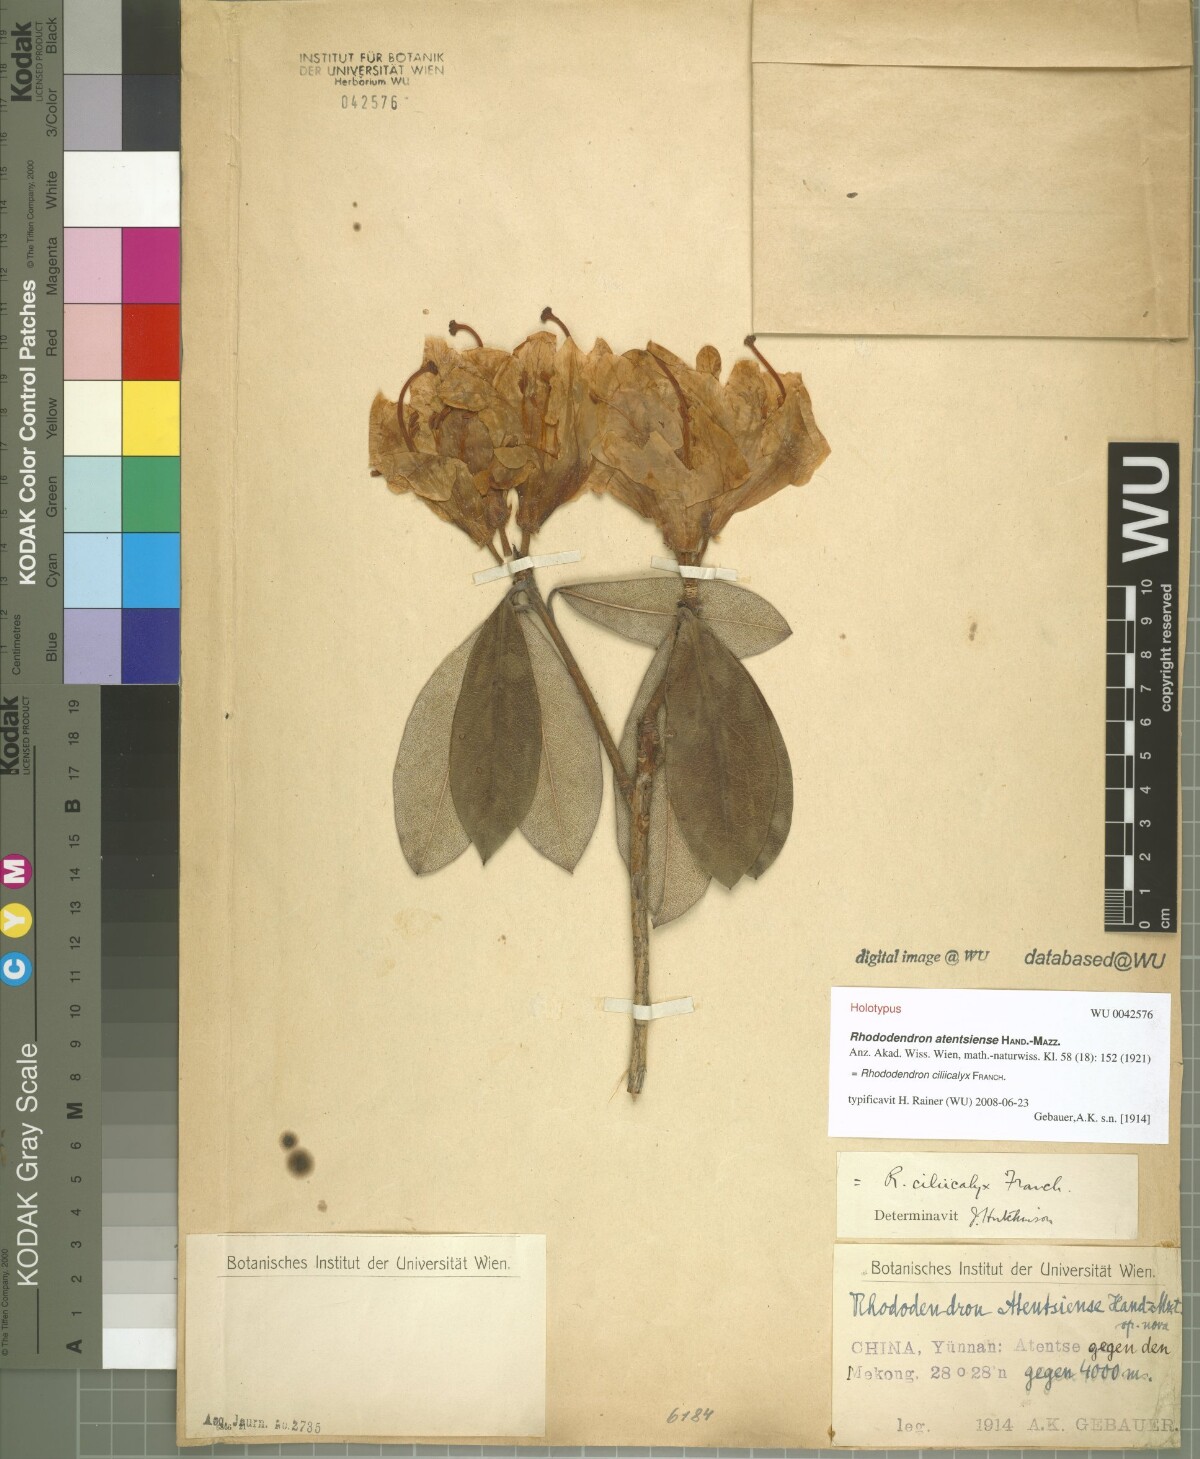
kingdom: Plantae
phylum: Tracheophyta
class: Magnoliopsida
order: Ericales
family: Ericaceae
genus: Rhododendron
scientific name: Rhododendron dendricola
